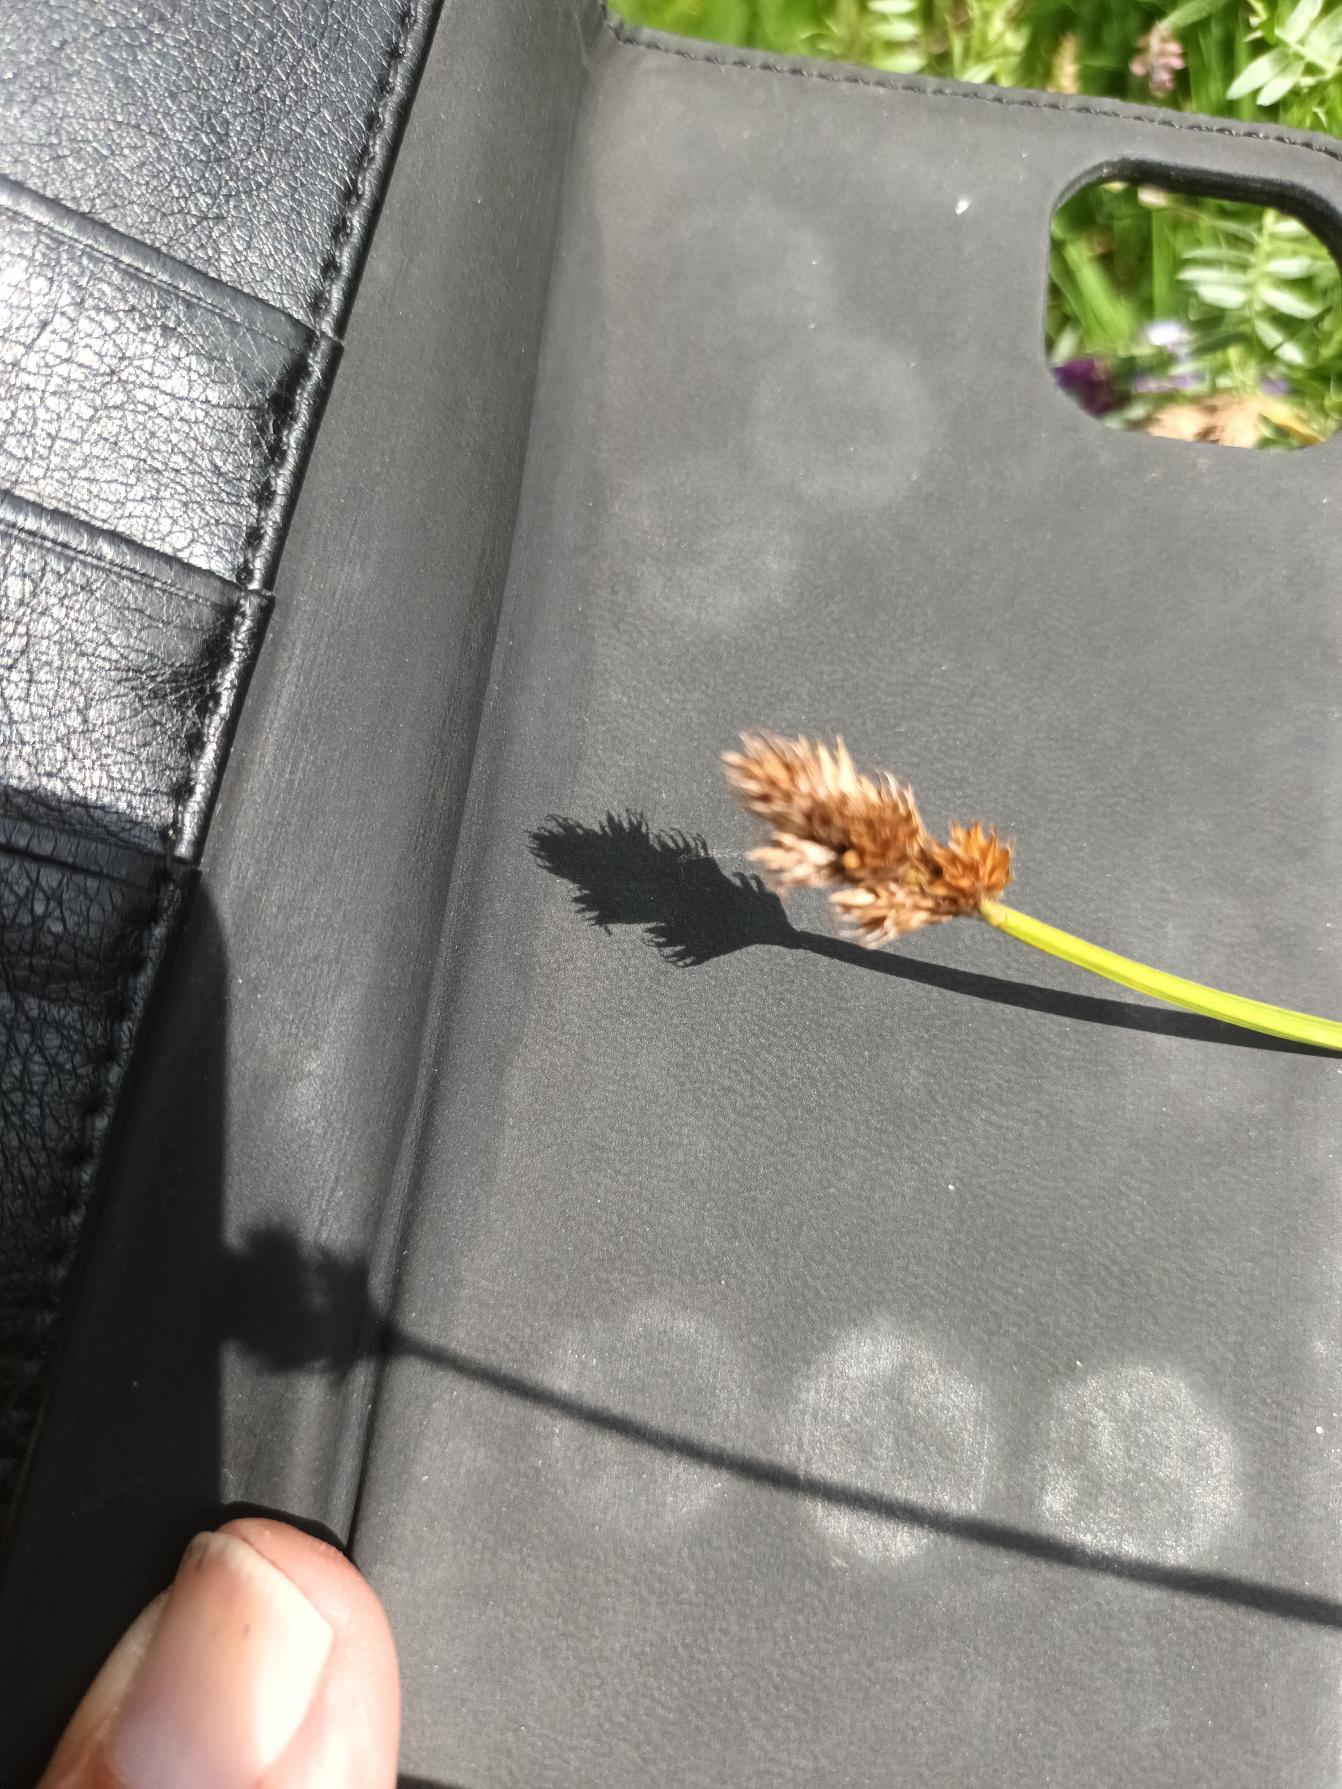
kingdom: Plantae
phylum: Tracheophyta
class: Liliopsida
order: Poales
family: Cyperaceae
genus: Carex
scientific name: Carex leporina
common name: Hare-star
